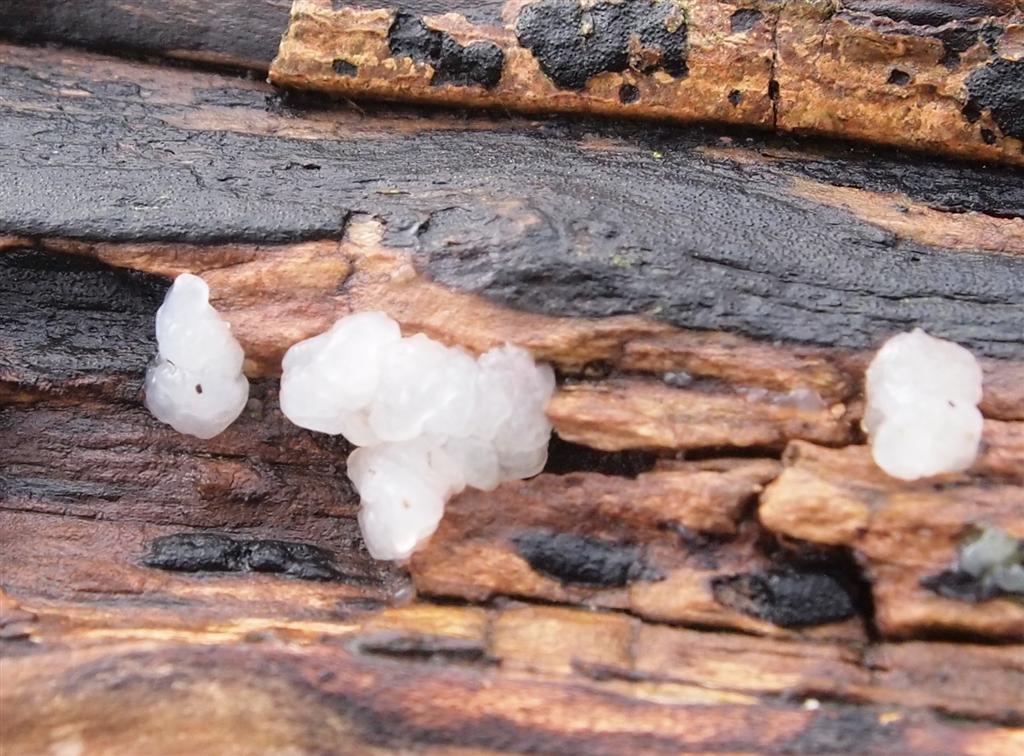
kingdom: Fungi
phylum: Basidiomycota
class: Agaricomycetes
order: Auriculariales
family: Hyaloriaceae
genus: Myxarium
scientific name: Myxarium nucleatum
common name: klar bævretop
